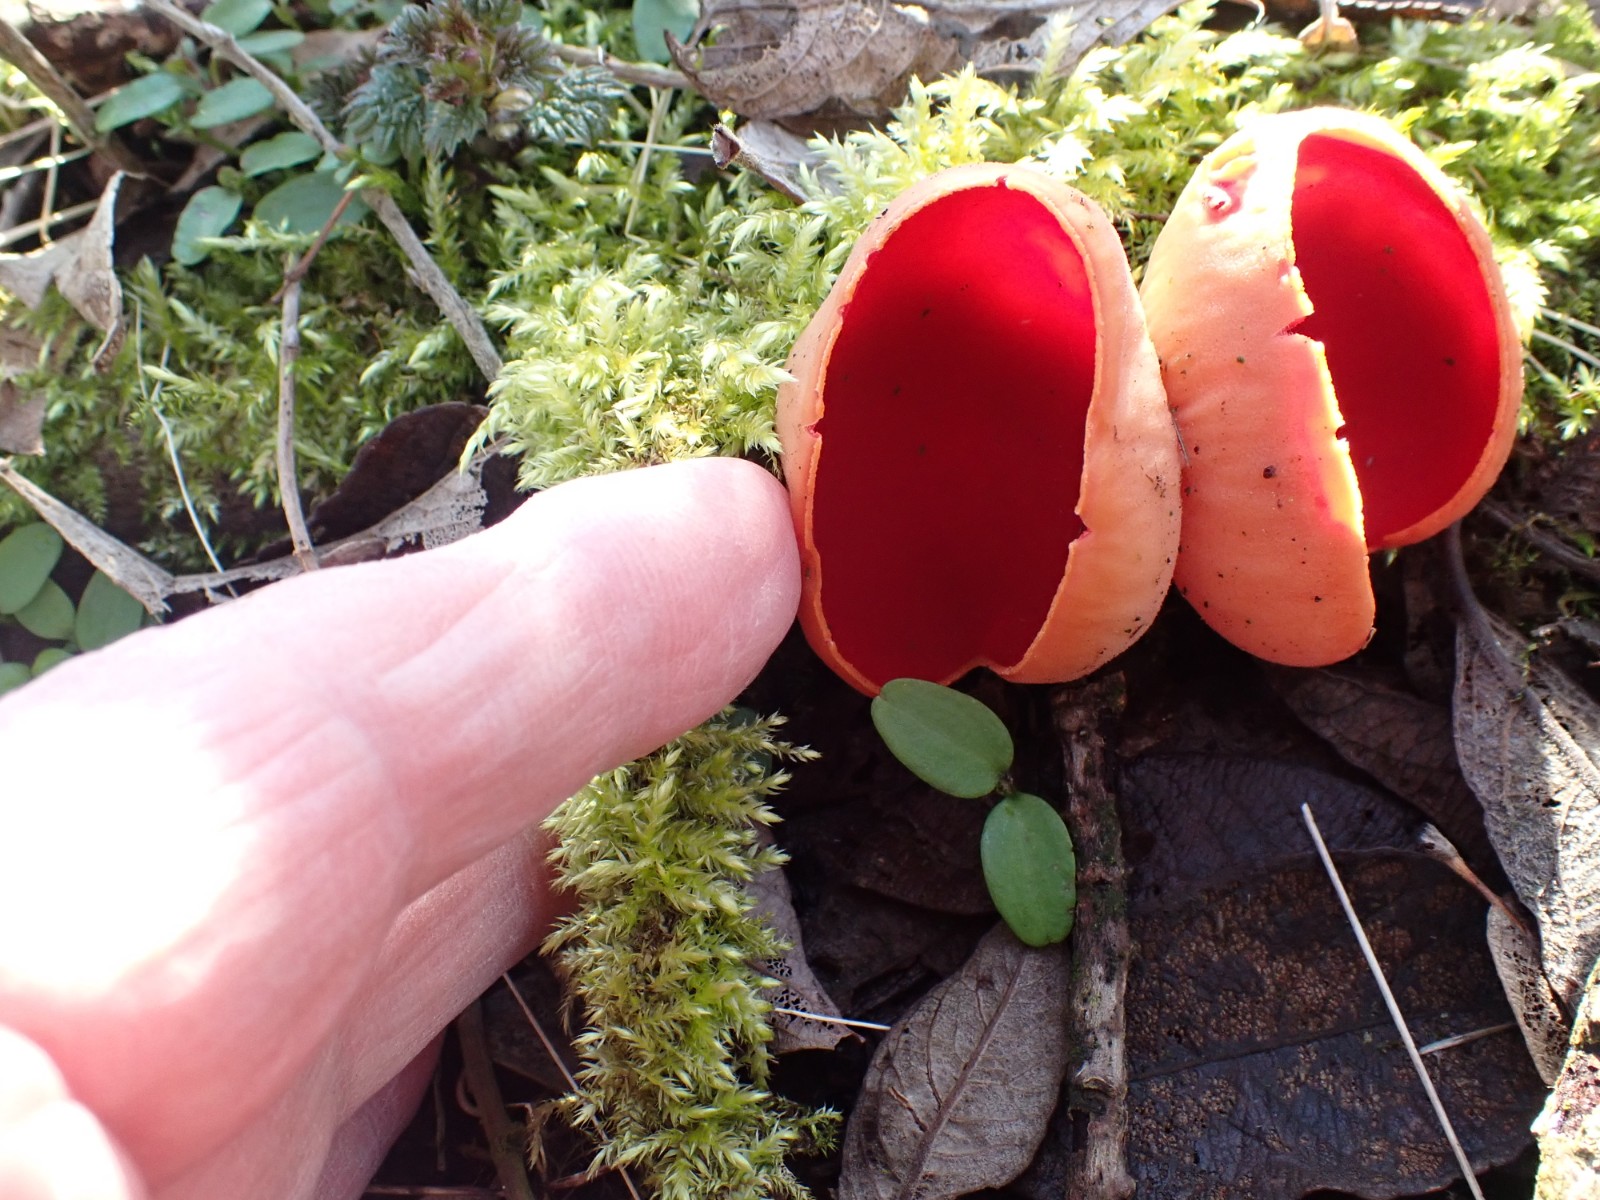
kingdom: Fungi
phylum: Ascomycota
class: Pezizomycetes
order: Pezizales
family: Sarcoscyphaceae
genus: Sarcoscypha
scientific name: Sarcoscypha austriaca
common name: krølhåret pragtbæger
